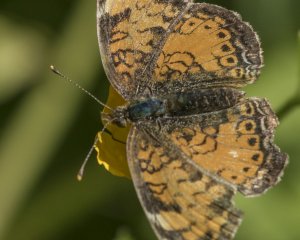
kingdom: Animalia
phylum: Arthropoda
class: Insecta
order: Lepidoptera
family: Nymphalidae
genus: Phyciodes
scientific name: Phyciodes tharos
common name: Northern Crescent
